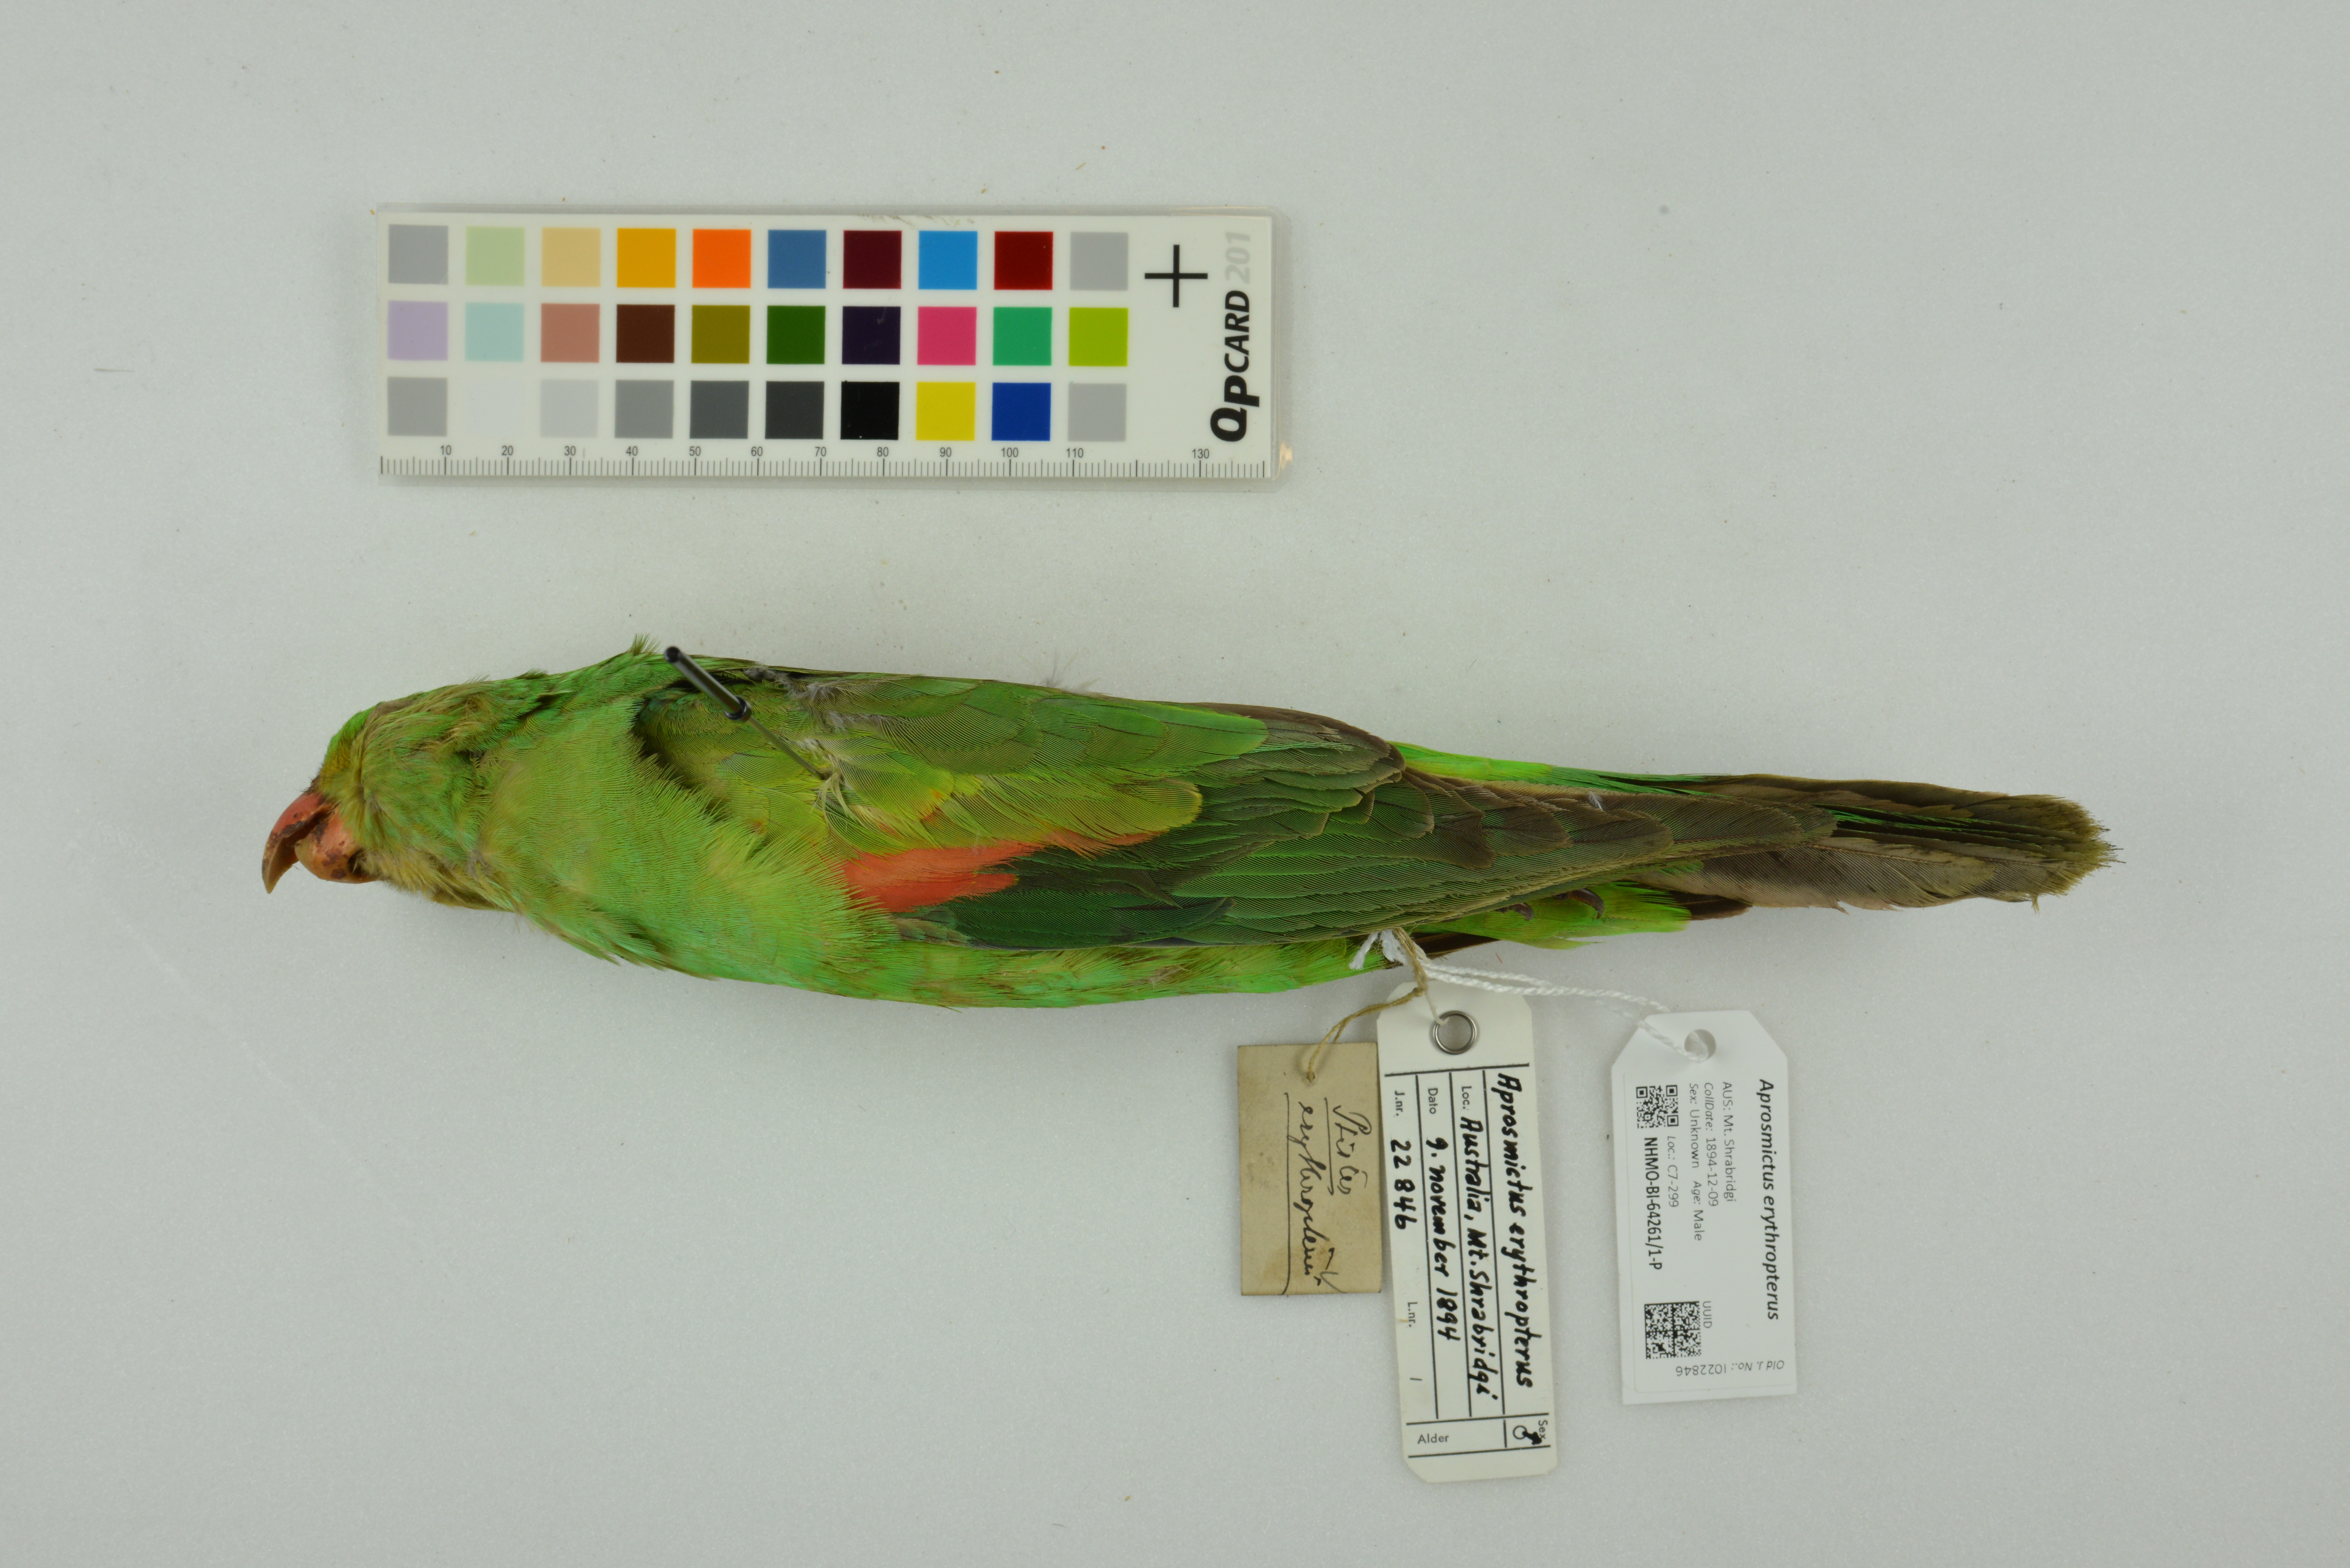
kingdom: Animalia
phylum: Chordata
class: Aves
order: Psittaciformes
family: Psittacidae
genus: Aprosmictus
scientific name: Aprosmictus erythropterus
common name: Red-winged parrot
